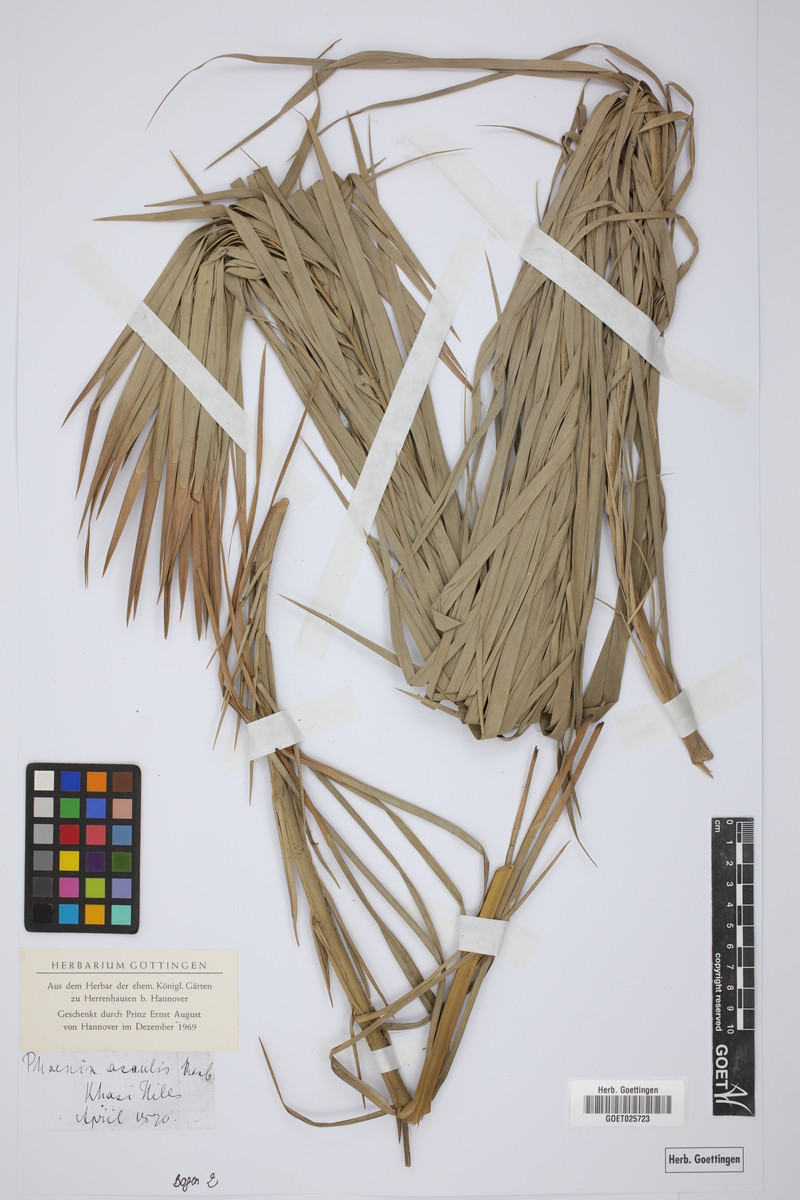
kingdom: Plantae
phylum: Tracheophyta
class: Liliopsida
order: Arecales
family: Arecaceae
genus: Phoenix
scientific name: Phoenix acaulis
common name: Stemless date palm
